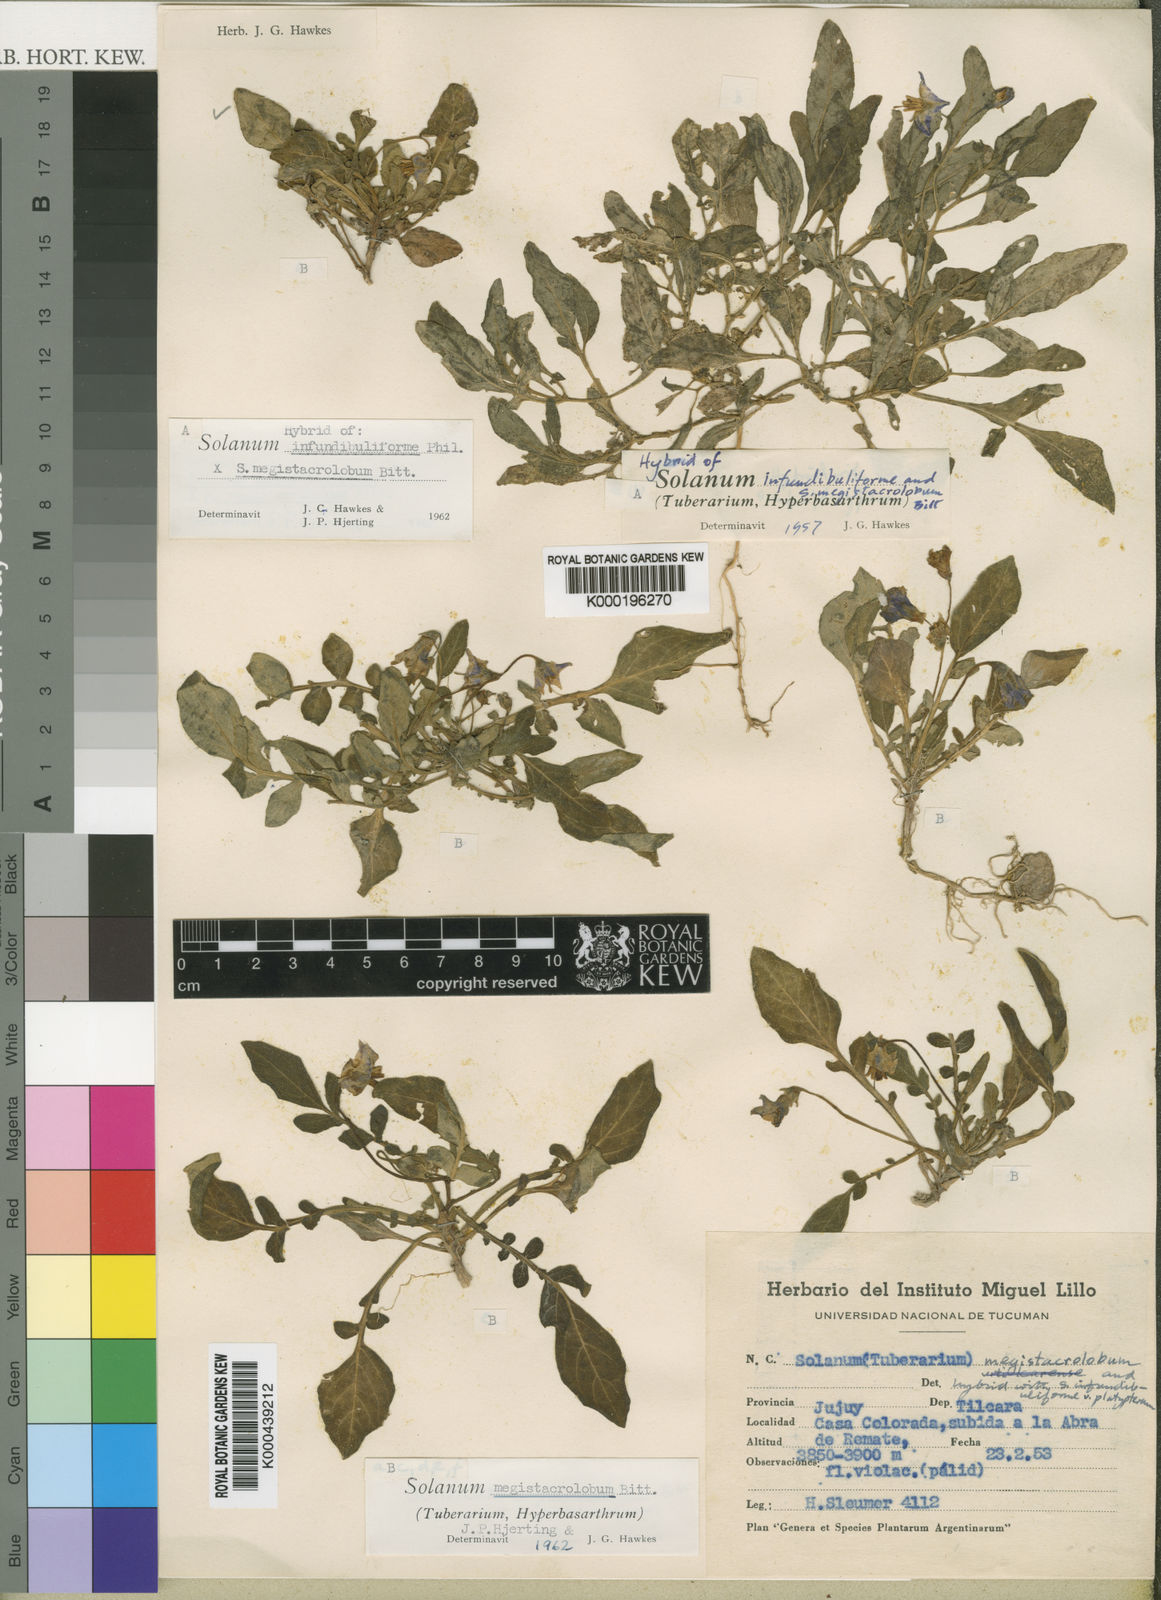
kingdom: Plantae
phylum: Tracheophyta
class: Magnoliopsida
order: Solanales
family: Solanaceae
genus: Solanum
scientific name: Solanum boliviense
